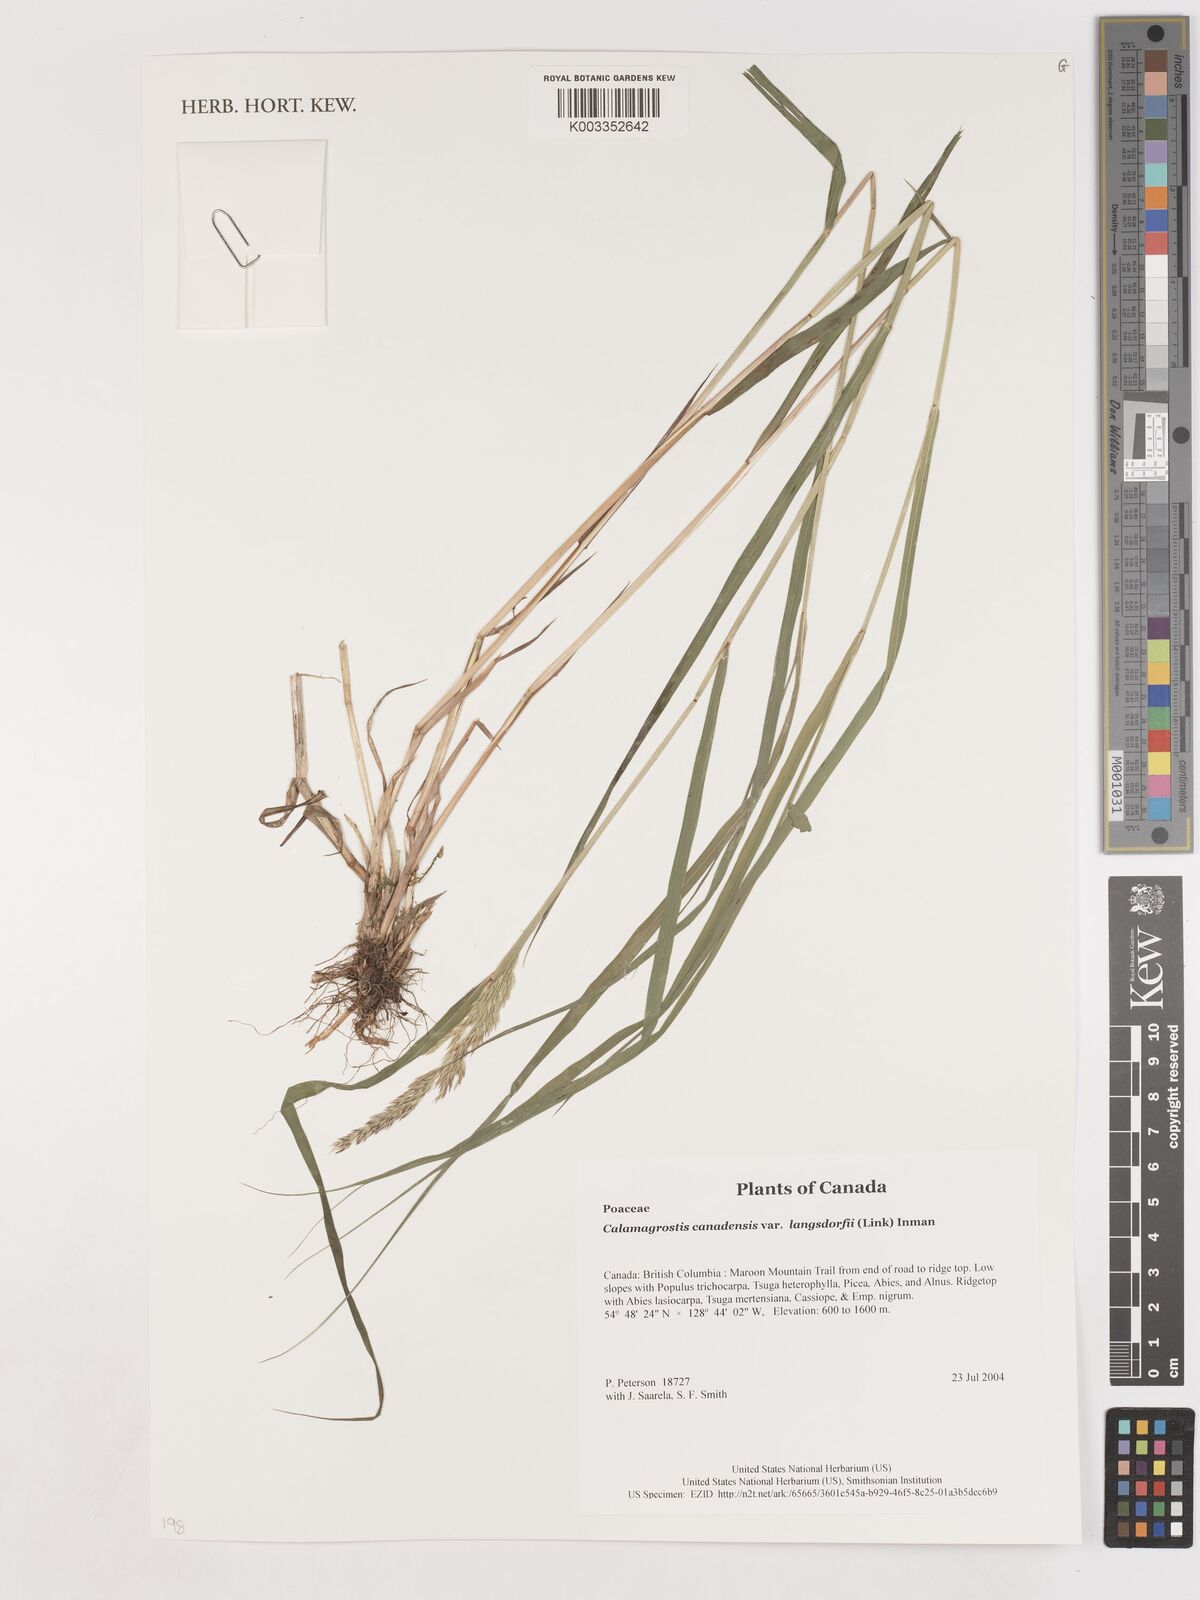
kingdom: Plantae
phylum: Tracheophyta
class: Liliopsida
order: Poales
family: Poaceae
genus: Calamagrostis
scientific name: Calamagrostis canadensis
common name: Canada bluejoint
